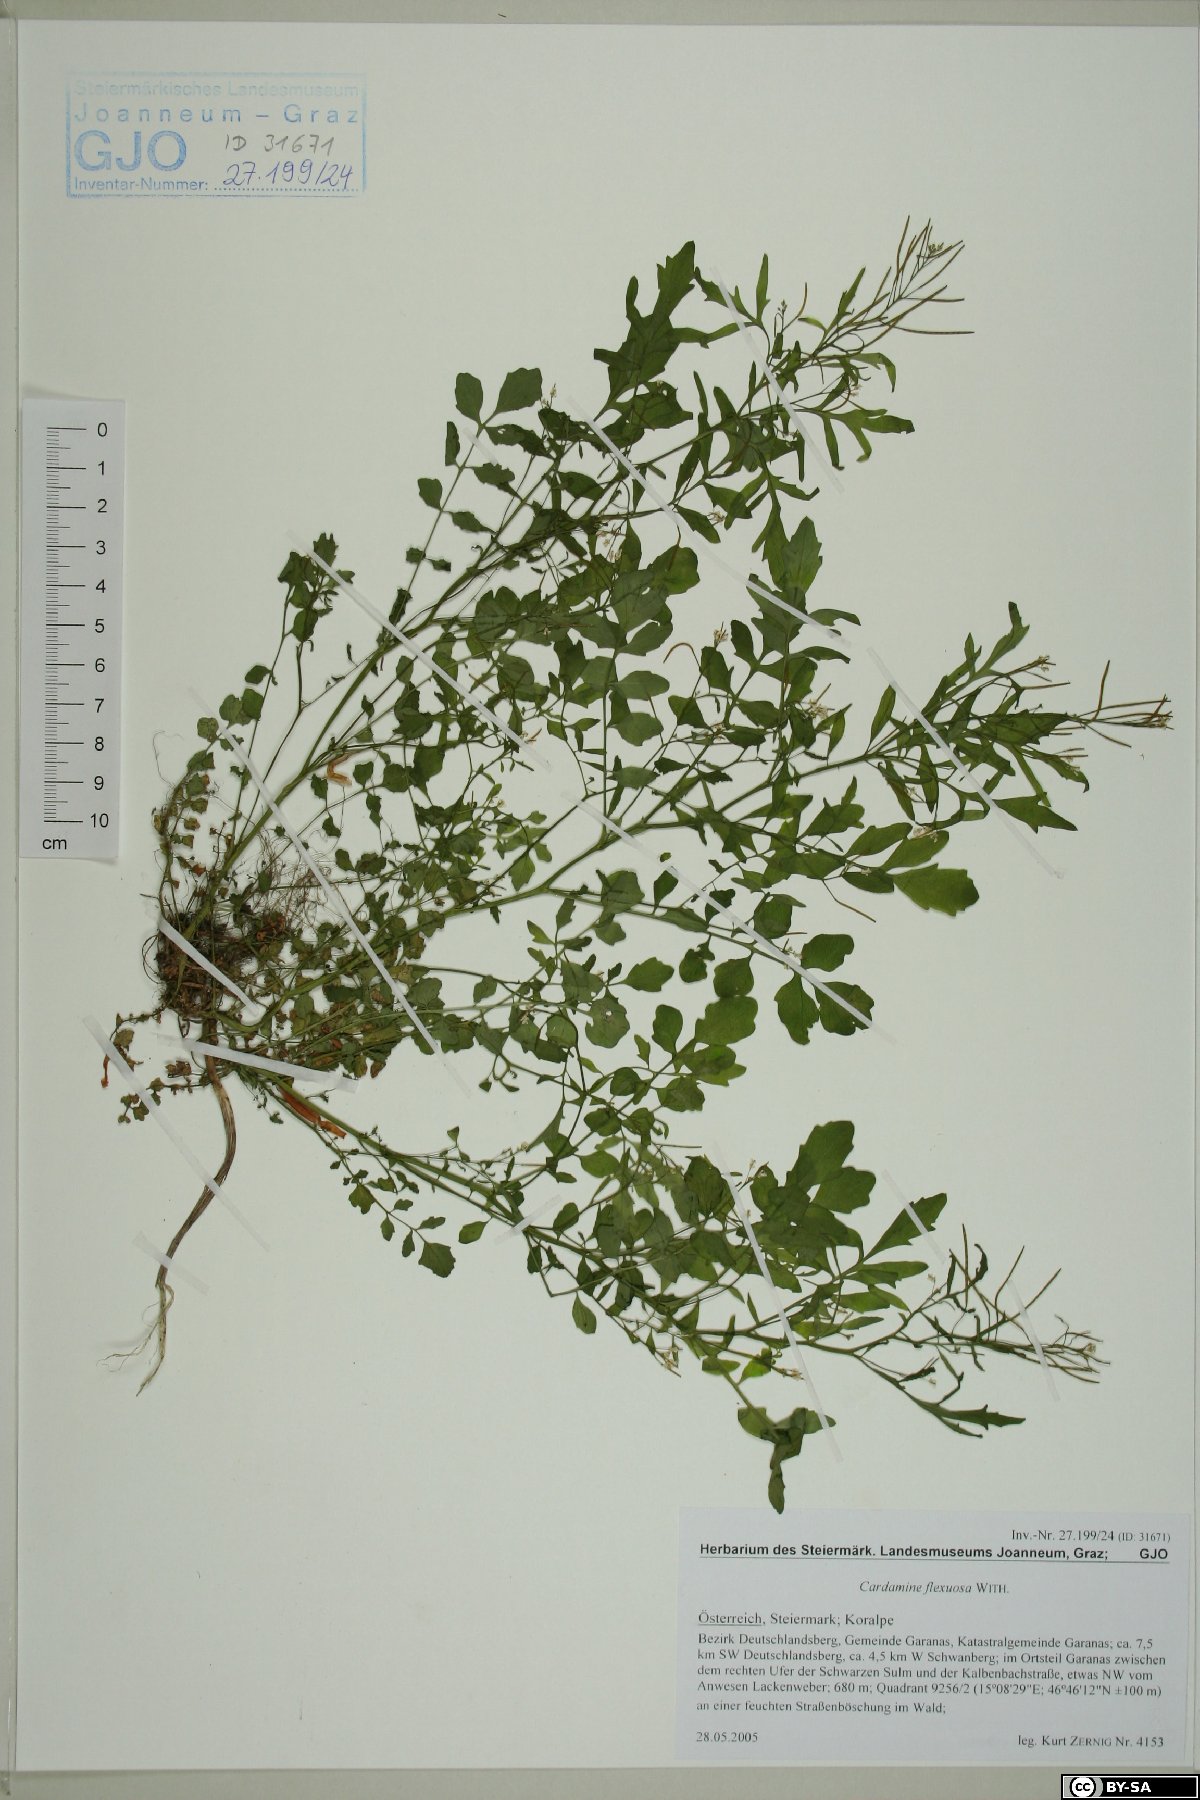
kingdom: Plantae
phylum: Tracheophyta
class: Magnoliopsida
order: Brassicales
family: Brassicaceae
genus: Cardamine
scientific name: Cardamine flexuosa
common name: Woodland bittercress
